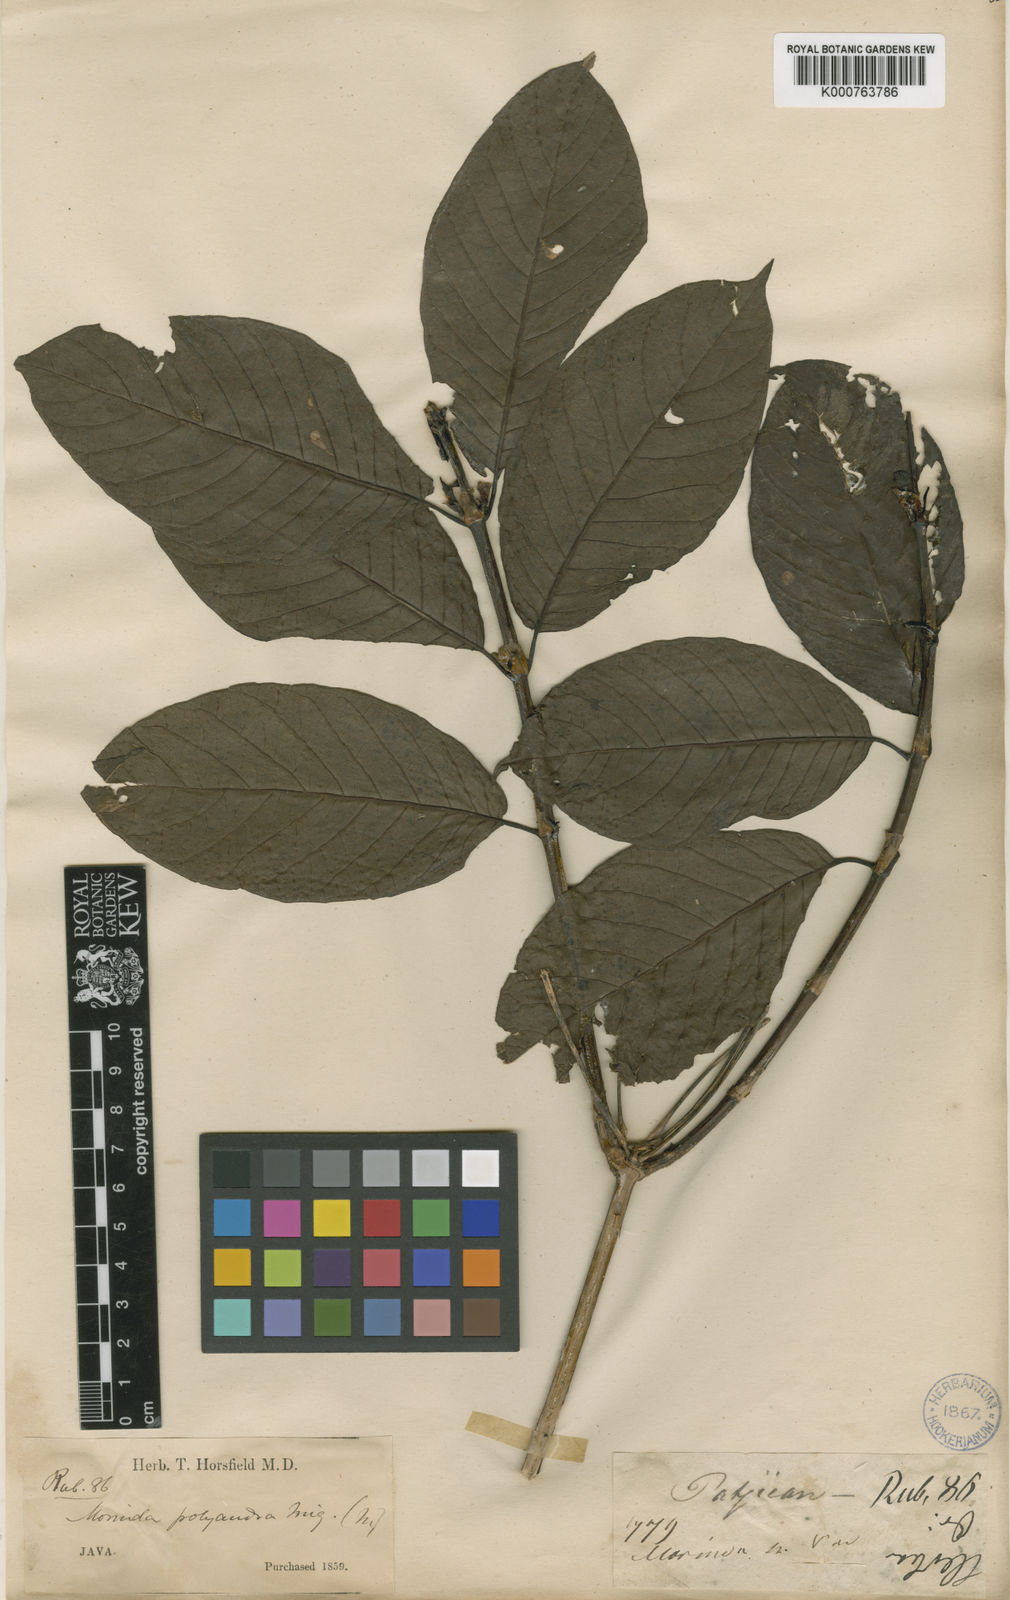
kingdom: Plantae
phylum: Tracheophyta
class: Magnoliopsida
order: Gentianales
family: Rubiaceae
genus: Morinda
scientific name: Morinda
